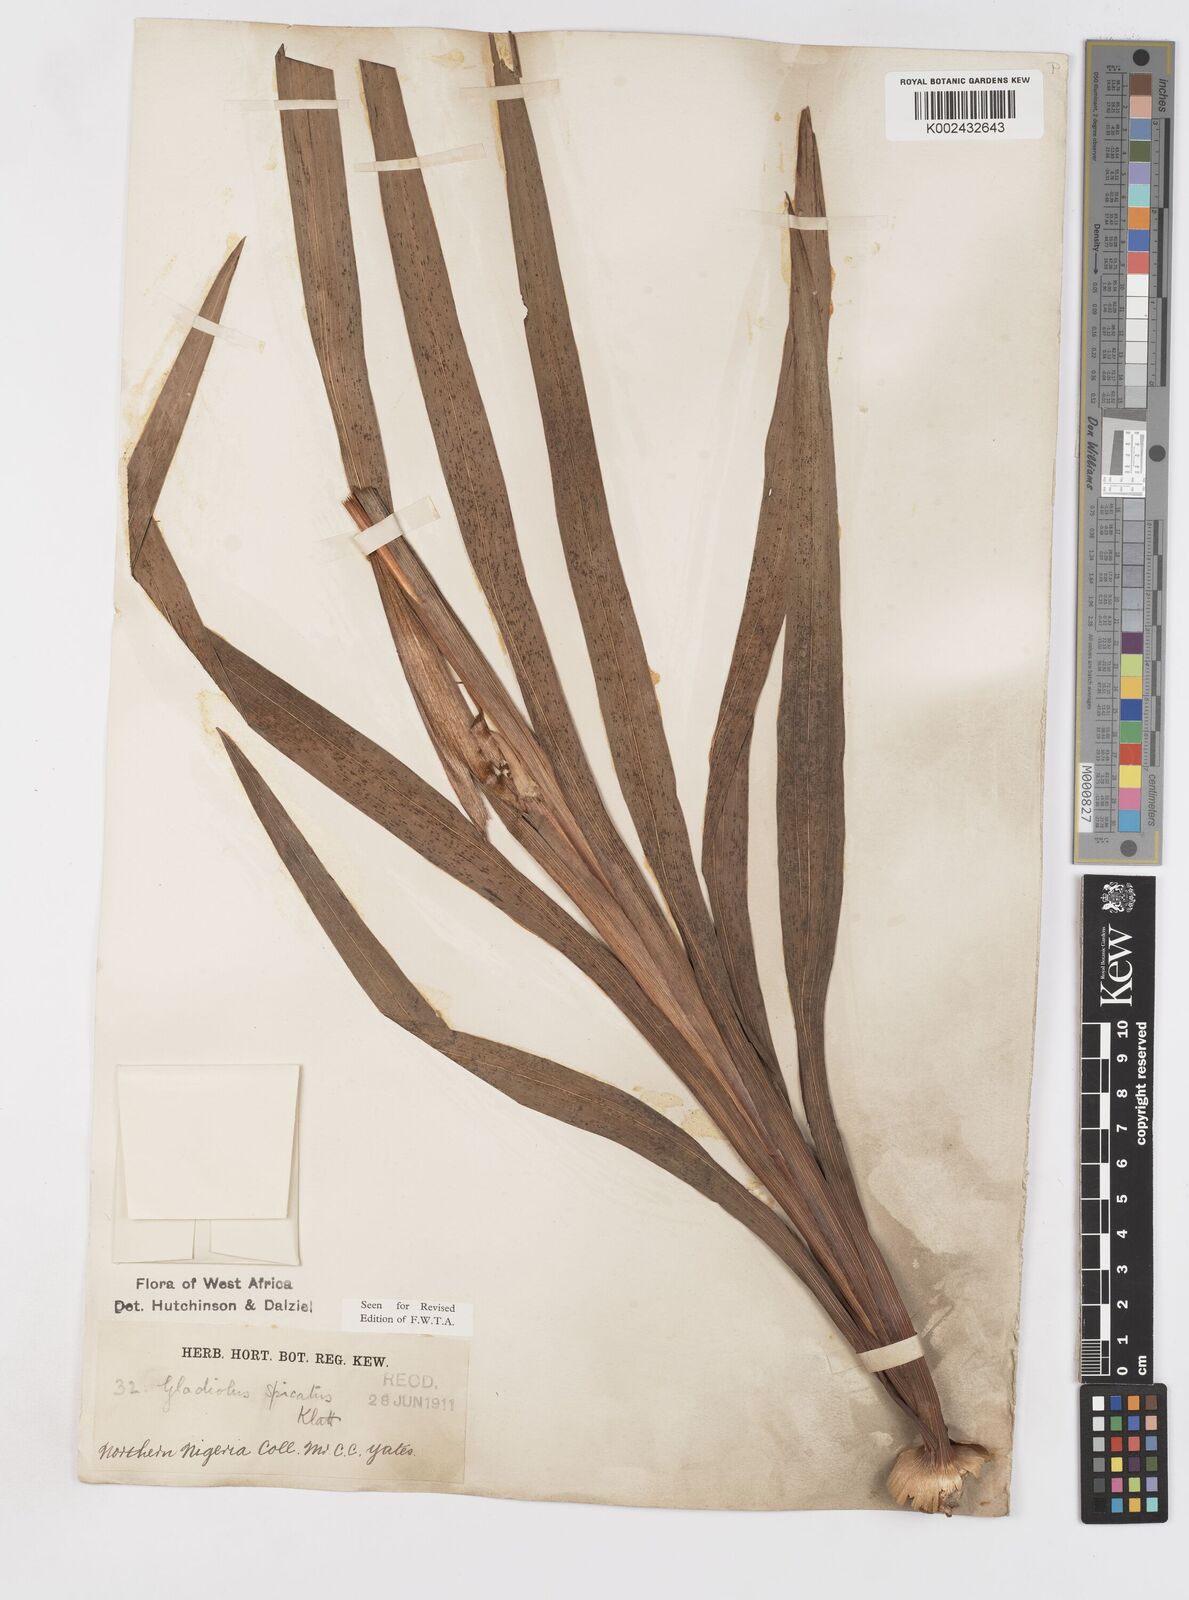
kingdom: Plantae
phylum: Tracheophyta
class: Liliopsida
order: Asparagales
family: Iridaceae
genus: Gladiolus
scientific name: Gladiolus gregarius
